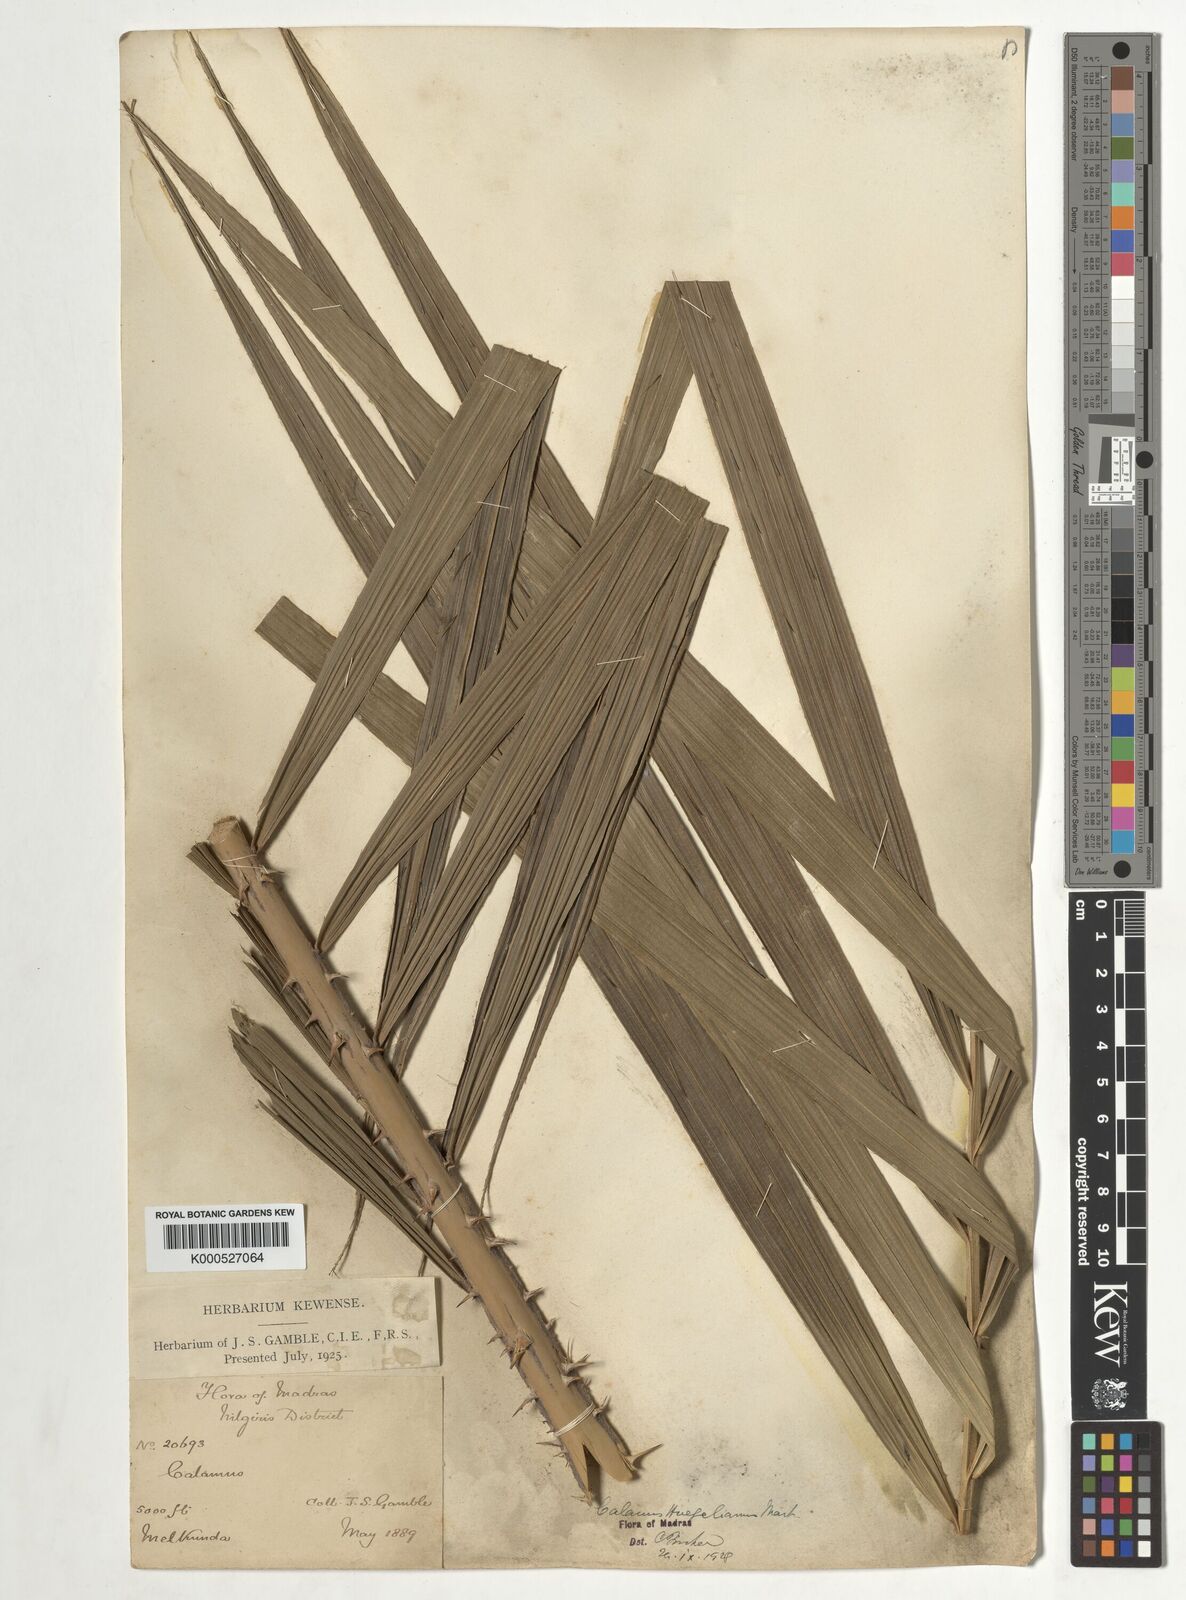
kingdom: Plantae
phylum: Tracheophyta
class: Liliopsida
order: Arecales
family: Arecaceae
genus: Calamus
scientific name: Calamus wightii
